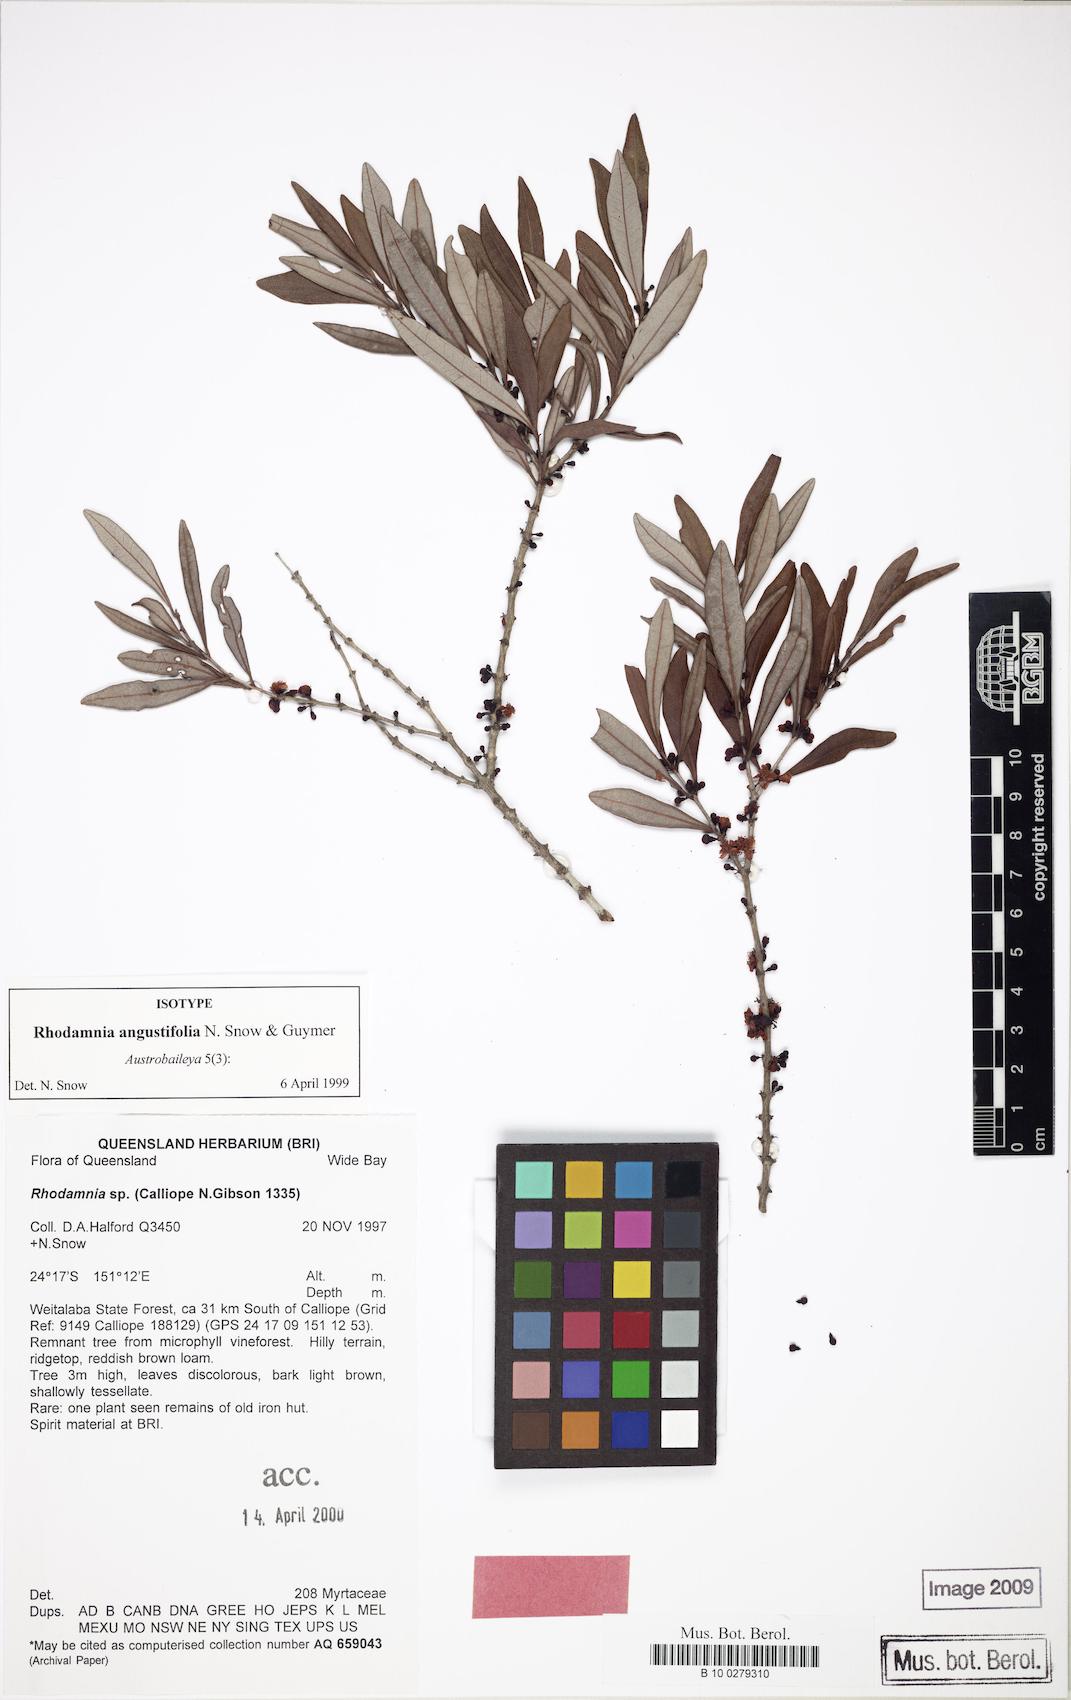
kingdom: Plantae
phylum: Tracheophyta
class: Magnoliopsida
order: Myrtales
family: Myrtaceae
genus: Rhodamnia
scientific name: Rhodamnia angustifolia
